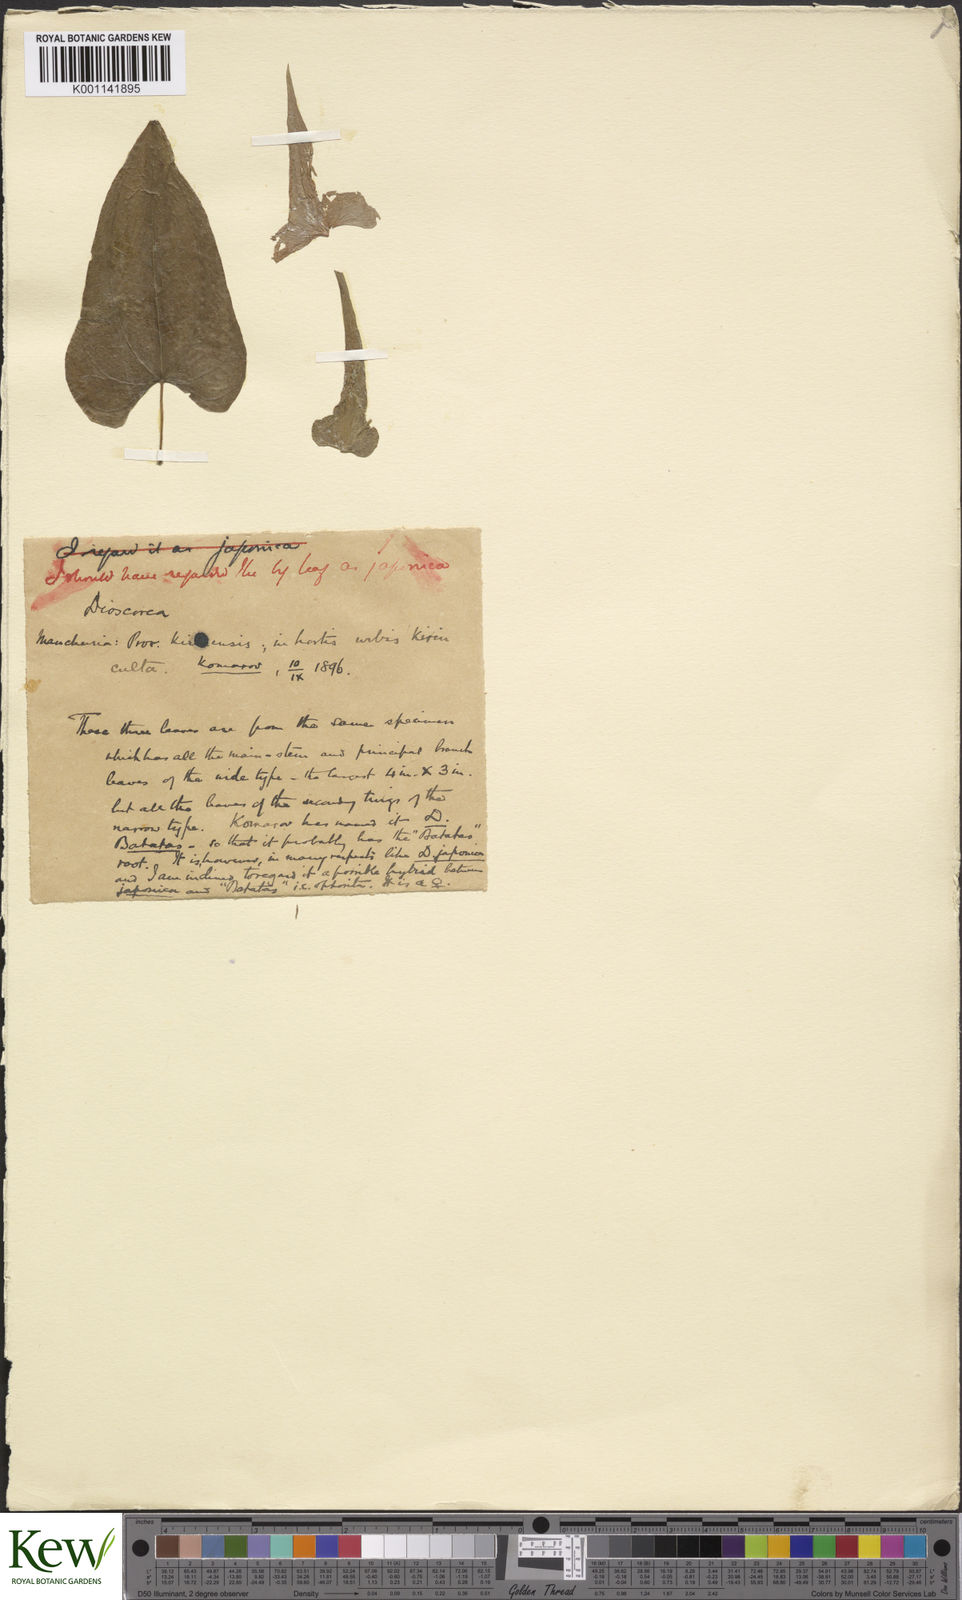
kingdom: Plantae
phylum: Tracheophyta
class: Liliopsida
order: Dioscoreales
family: Dioscoreaceae
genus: Dioscorea
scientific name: Dioscorea japonica
